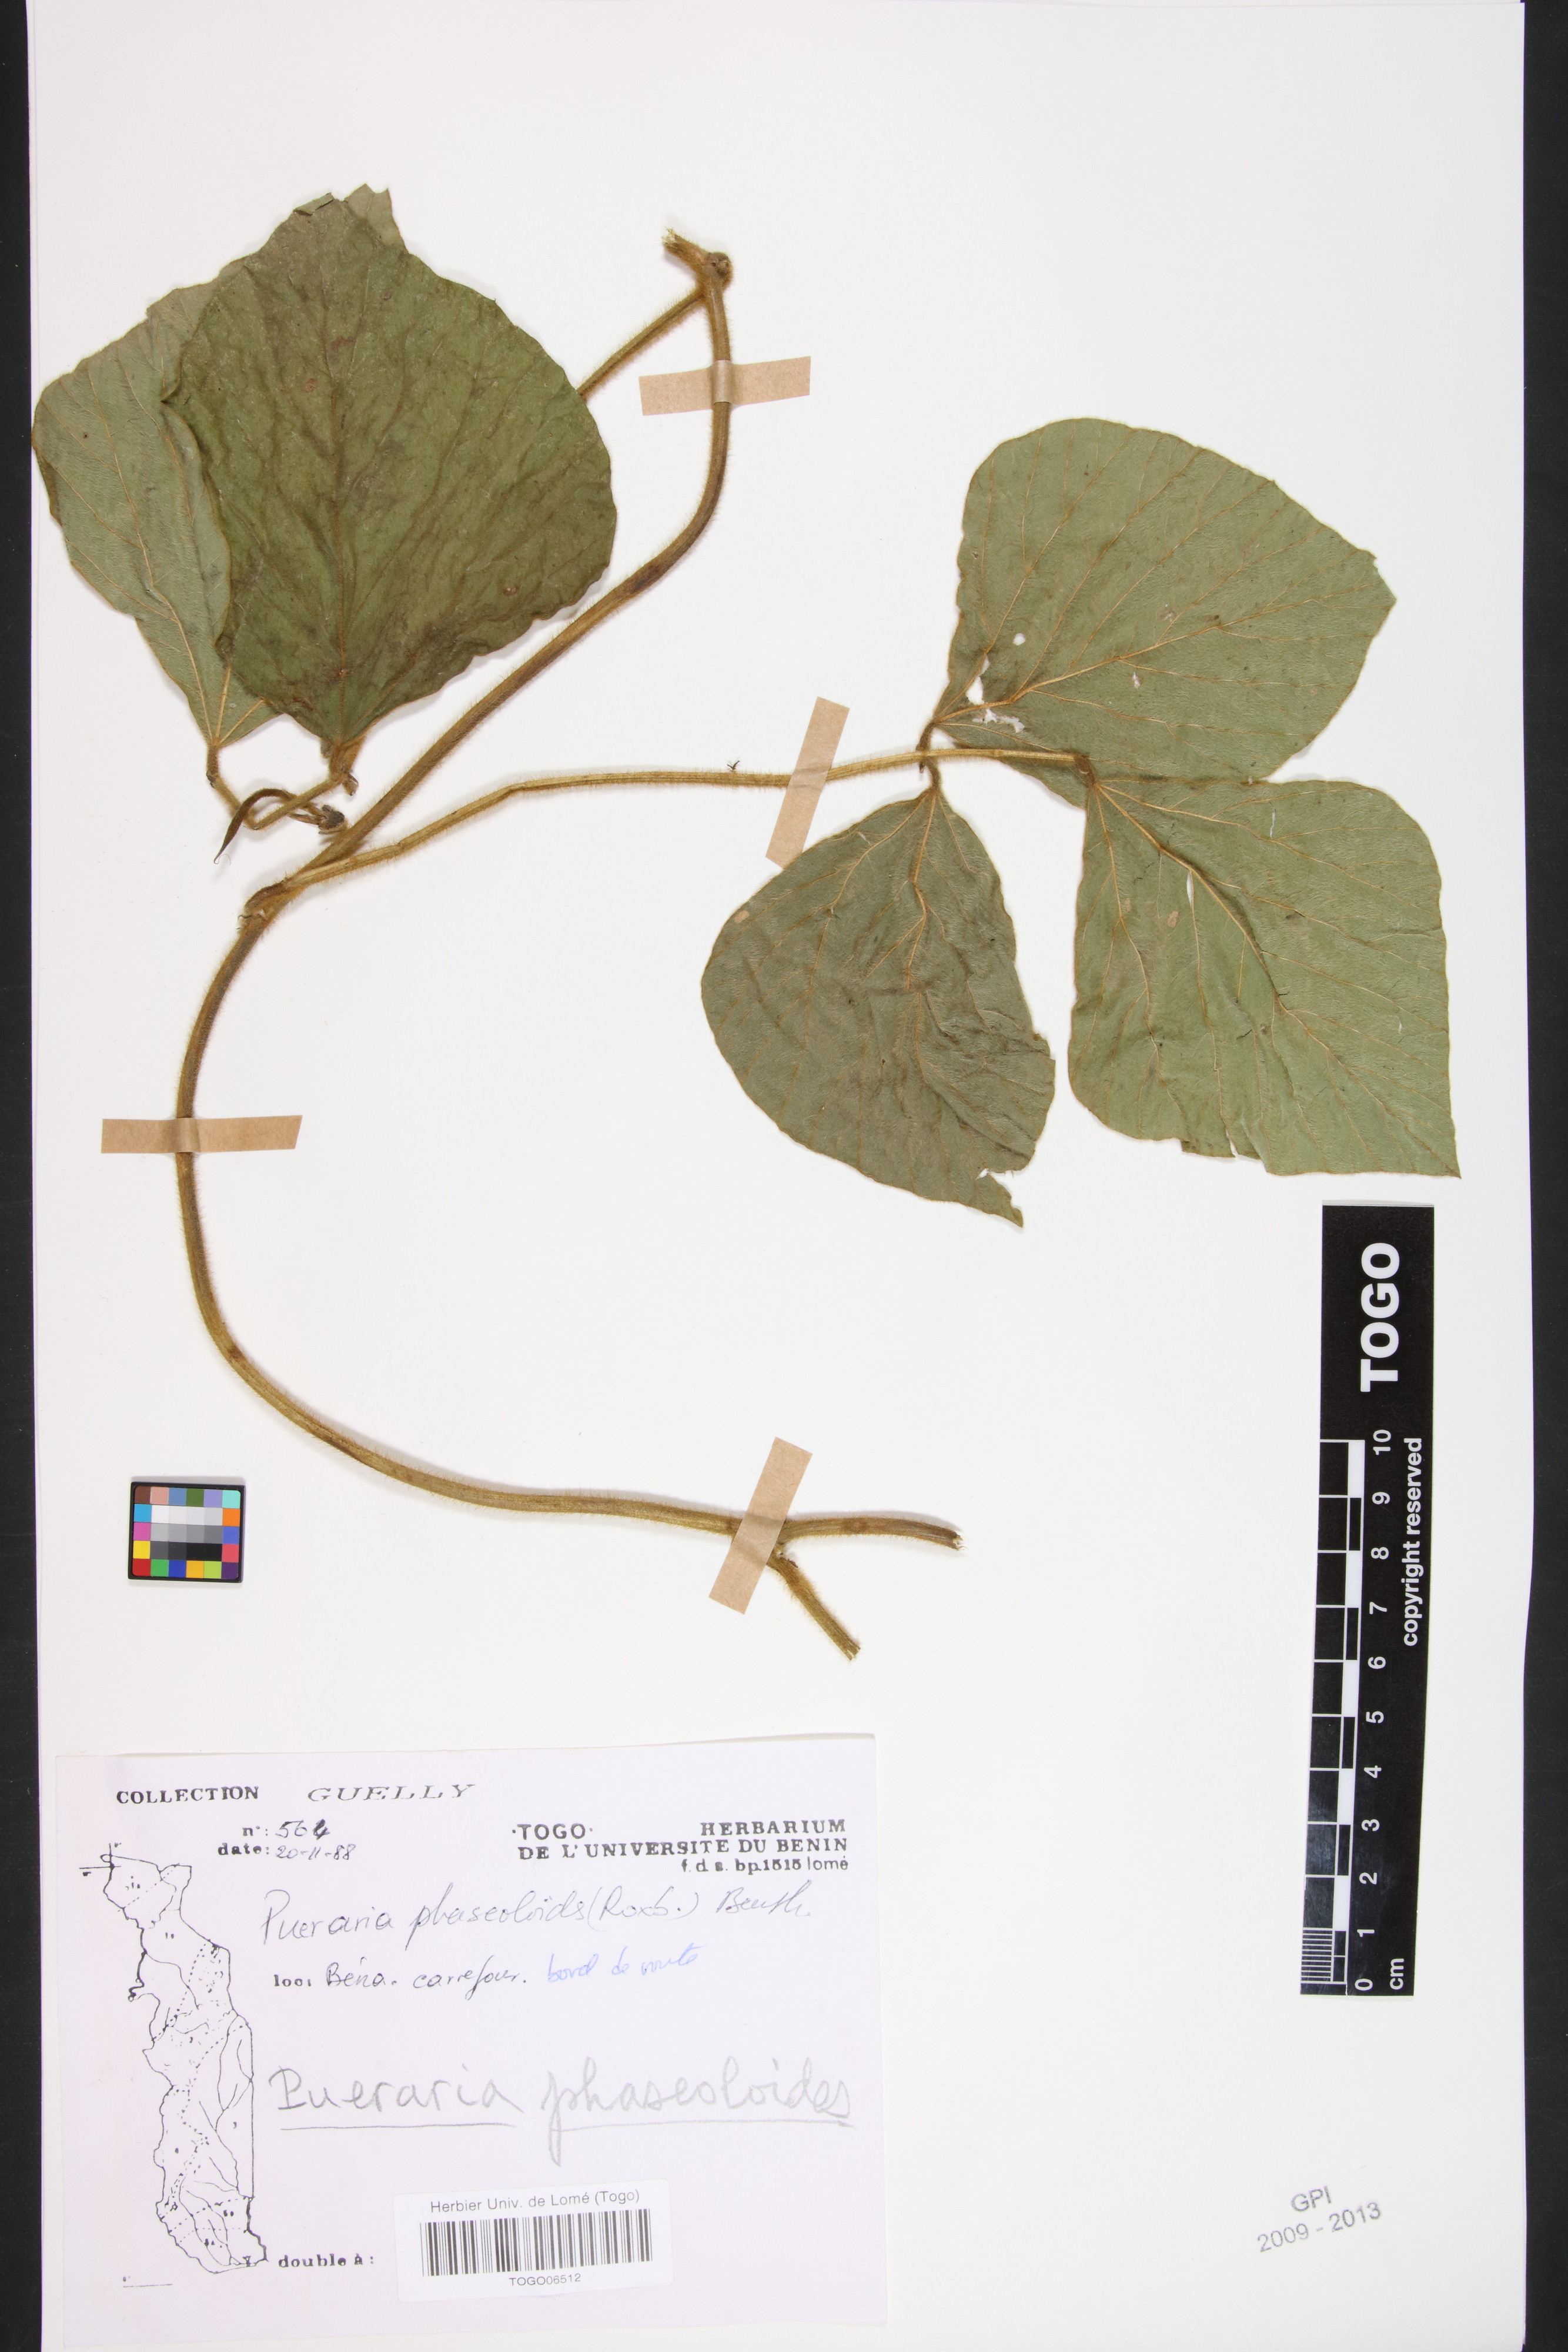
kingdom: Plantae
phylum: Tracheophyta
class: Magnoliopsida
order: Fabales
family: Fabaceae
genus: Neustanthus
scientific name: Neustanthus phaseoloides
